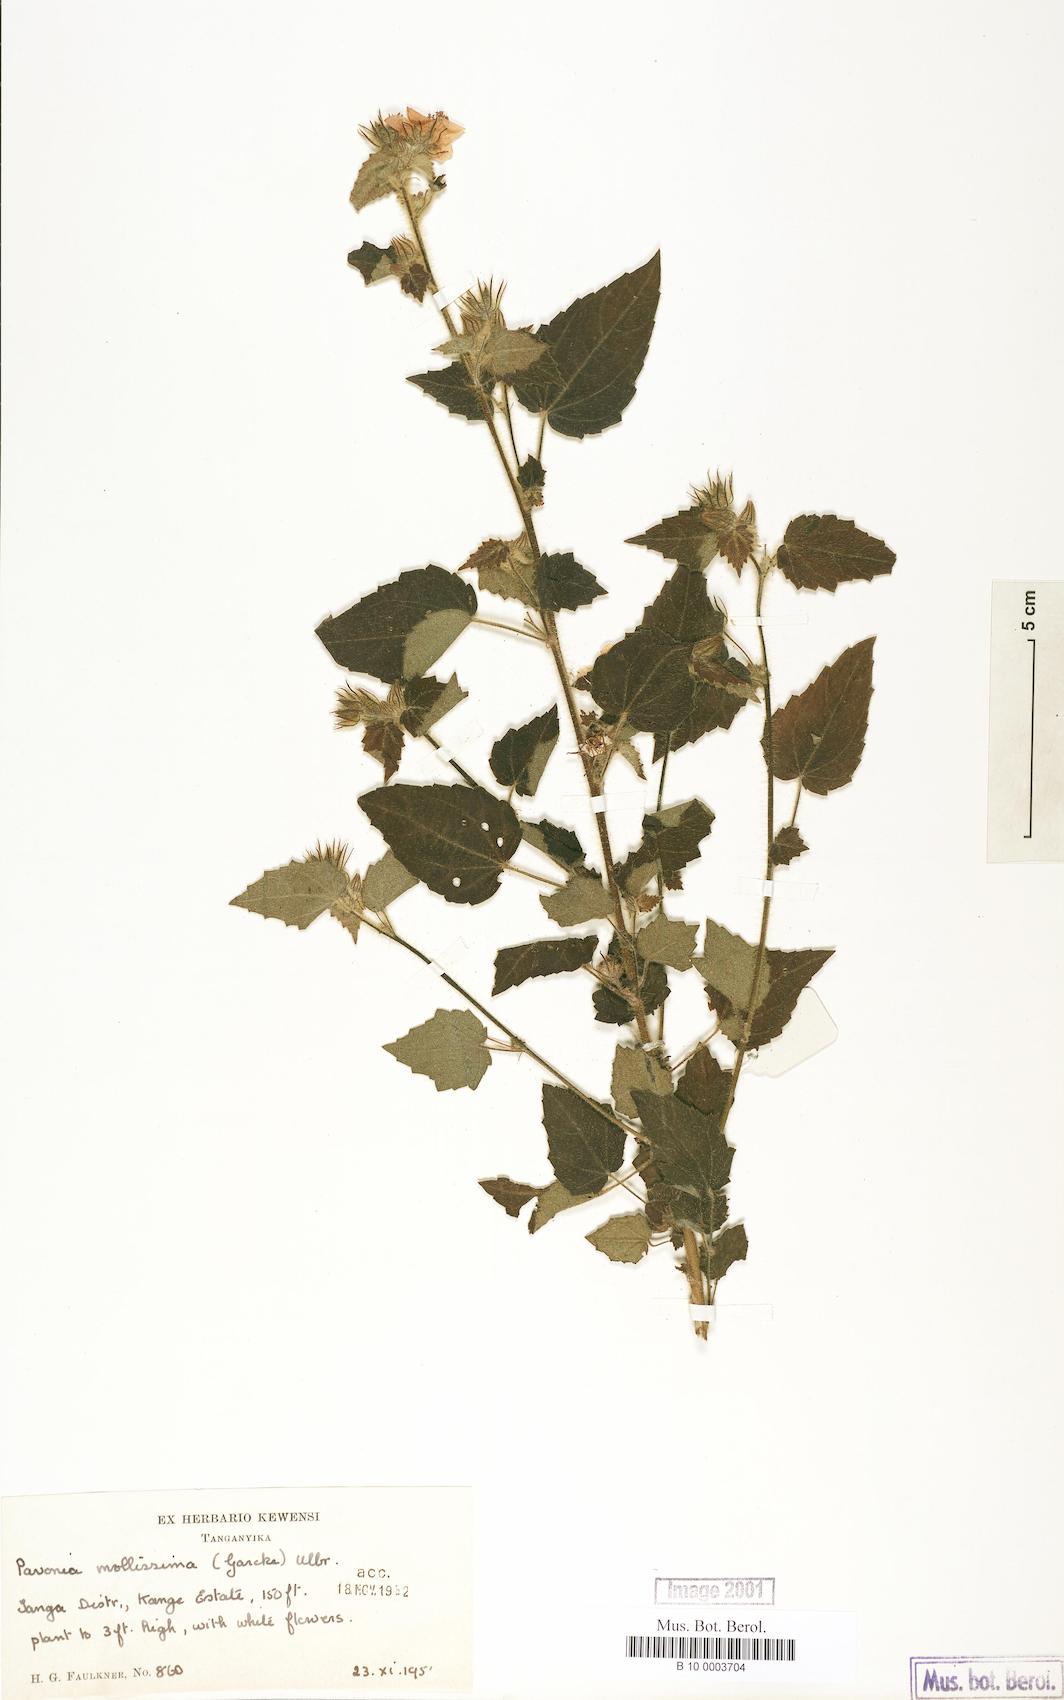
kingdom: Plantae
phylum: Tracheophyta
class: Magnoliopsida
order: Malvales
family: Malvaceae
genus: Pavonia
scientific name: Pavonia mollissima
